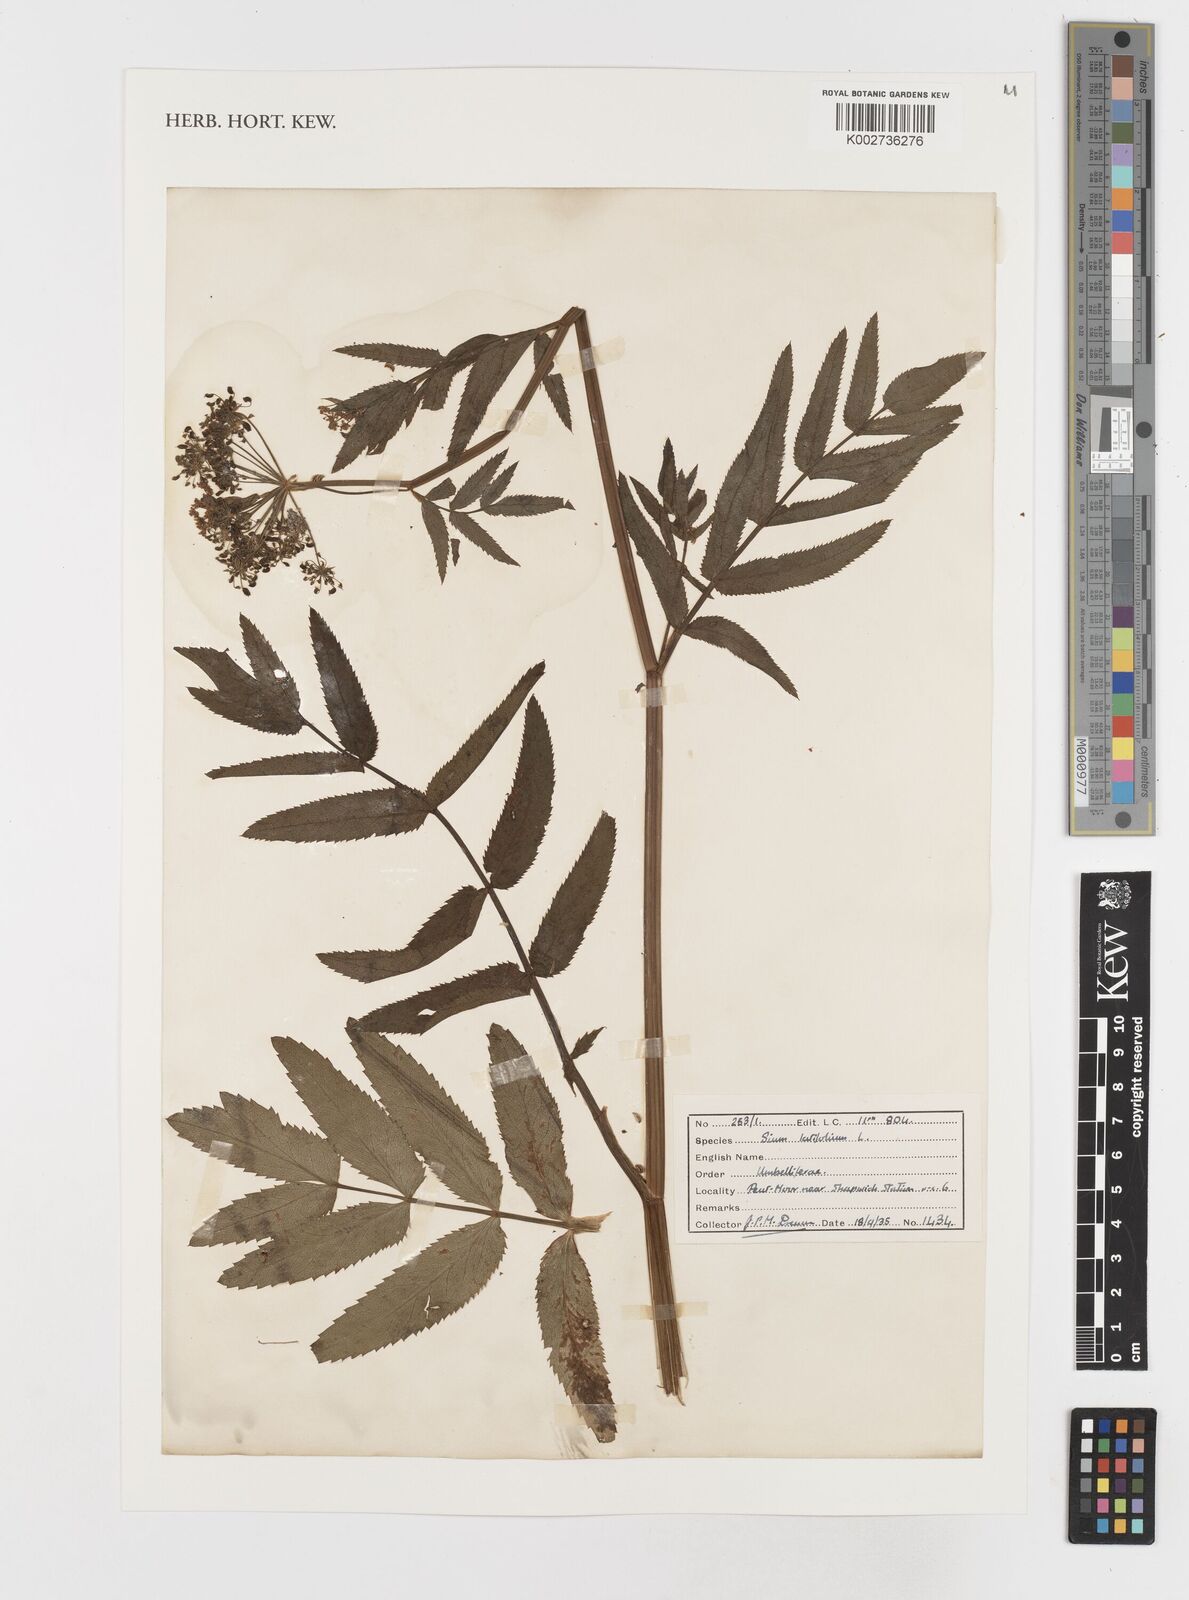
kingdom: Plantae
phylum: Tracheophyta
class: Magnoliopsida
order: Apiales
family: Apiaceae
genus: Sium
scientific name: Sium latifolium
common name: Greater water-parsnip
